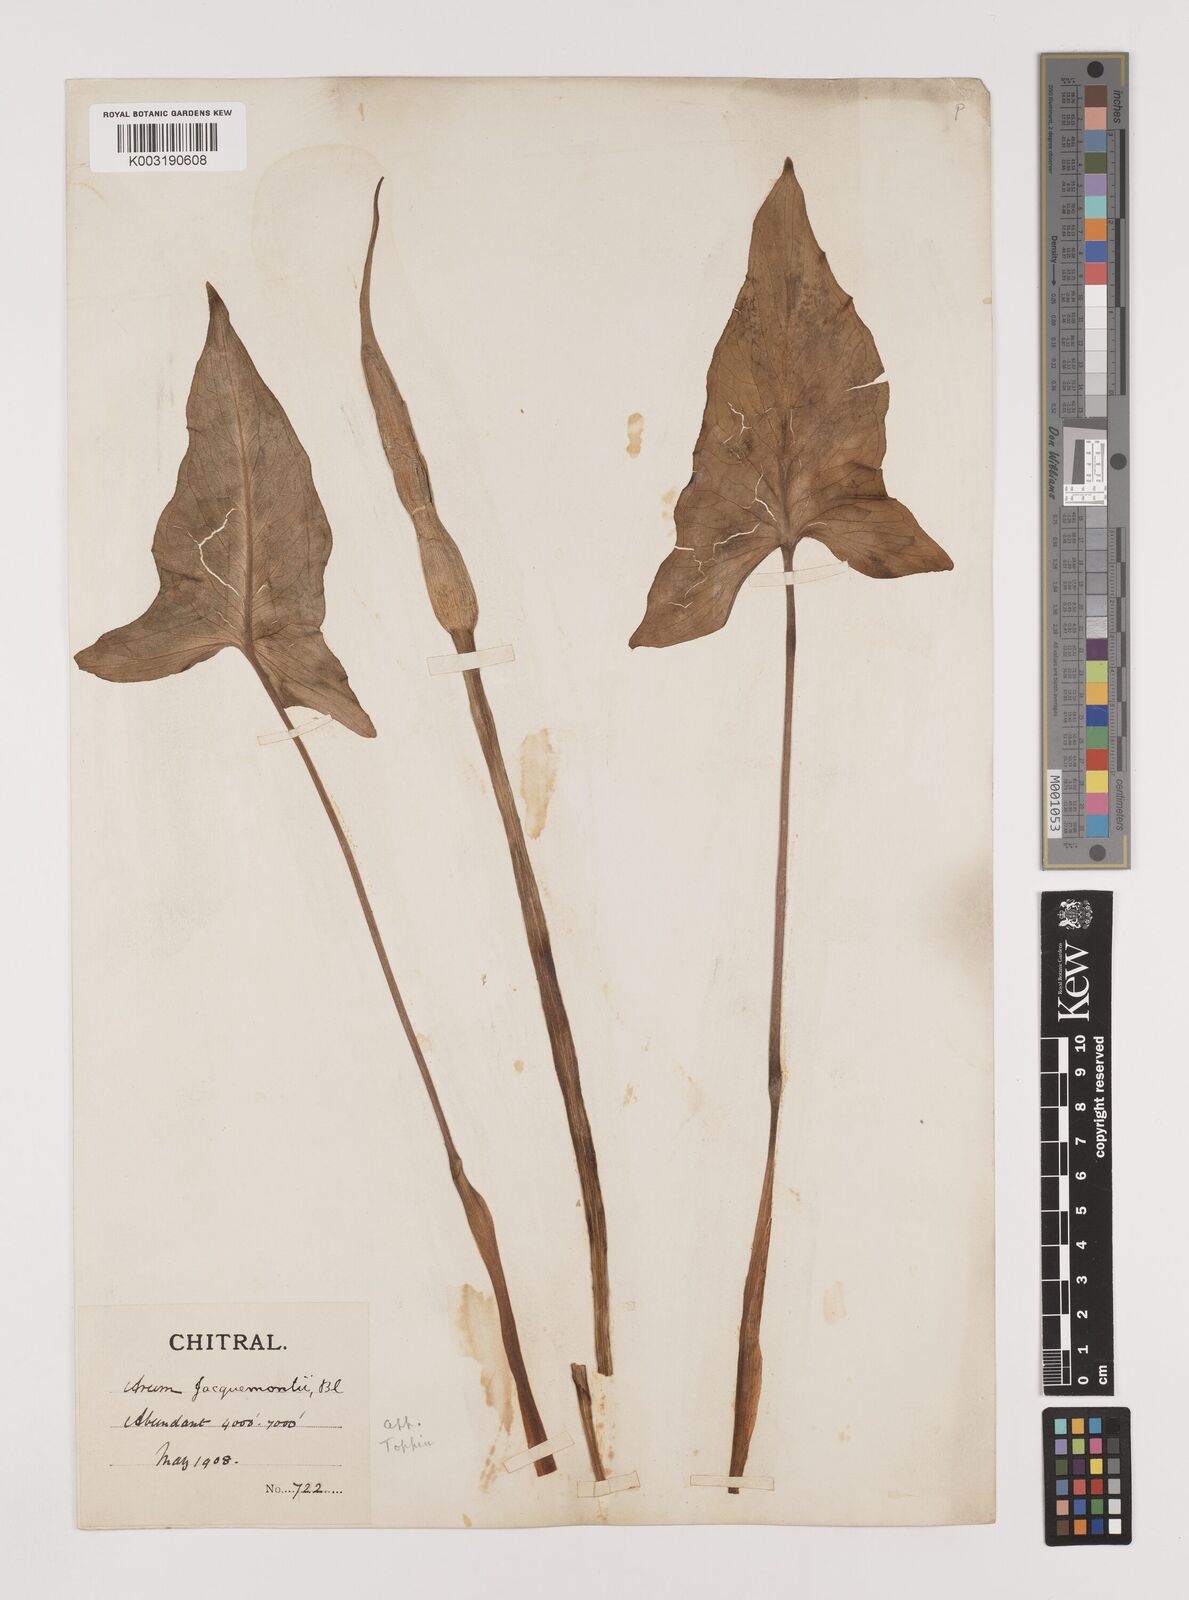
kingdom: Plantae
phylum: Tracheophyta
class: Liliopsida
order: Alismatales
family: Araceae
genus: Arum
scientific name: Arum jacquemontii
